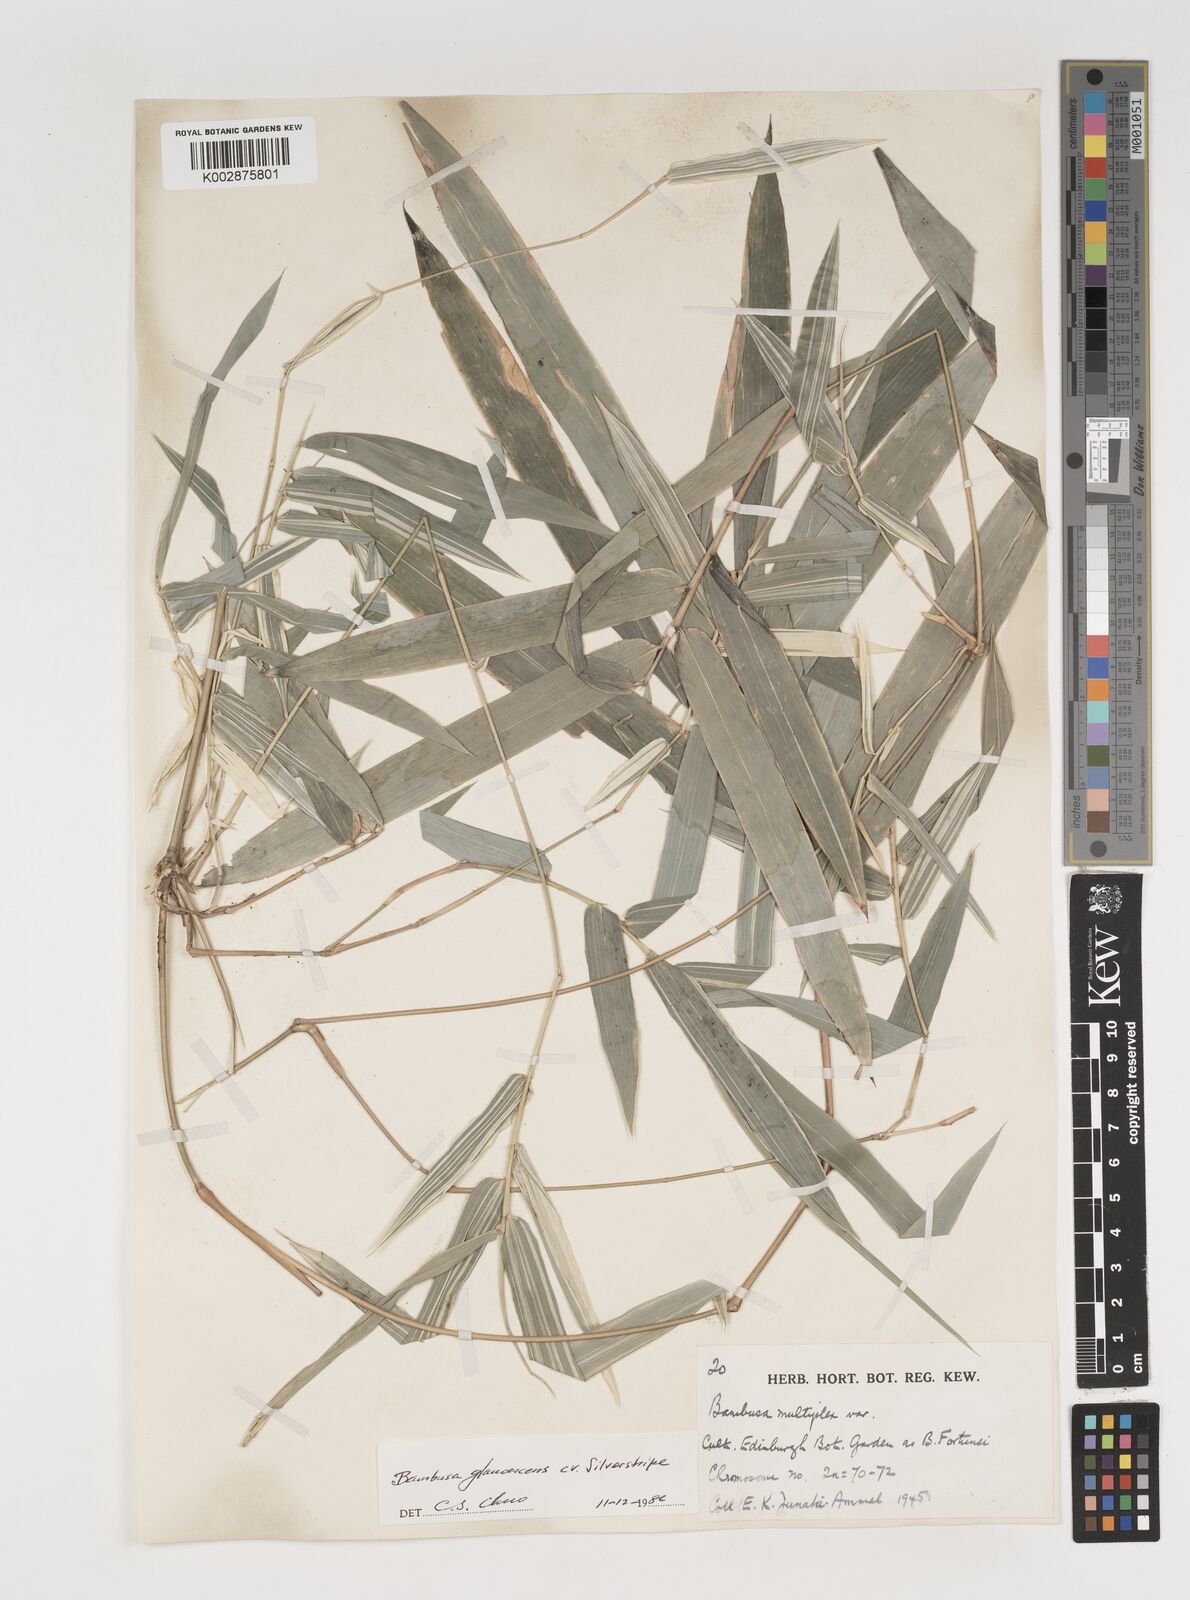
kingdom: Plantae
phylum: Tracheophyta
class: Liliopsida
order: Poales
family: Poaceae
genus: Bambusa
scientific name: Bambusa multiplex
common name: Hedge bamboo
